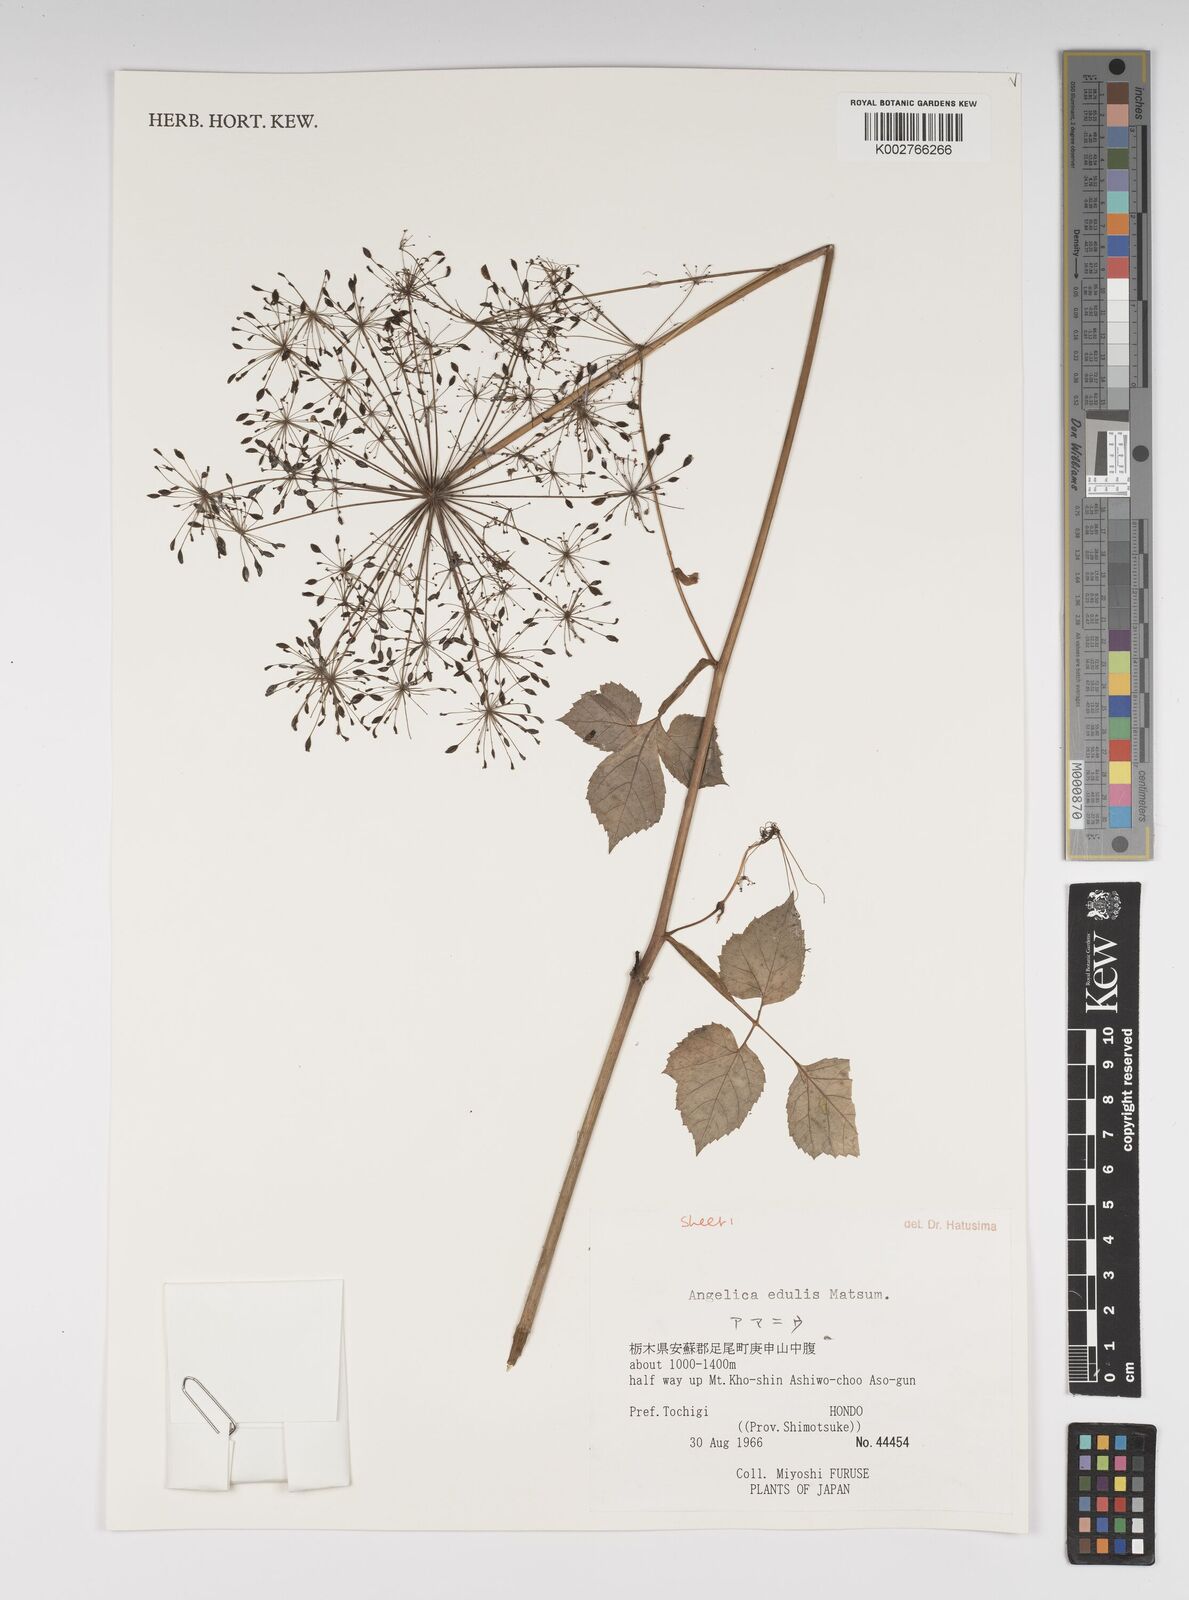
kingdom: Plantae
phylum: Tracheophyta
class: Magnoliopsida
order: Apiales
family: Apiaceae
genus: Angelica
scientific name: Angelica edulis
